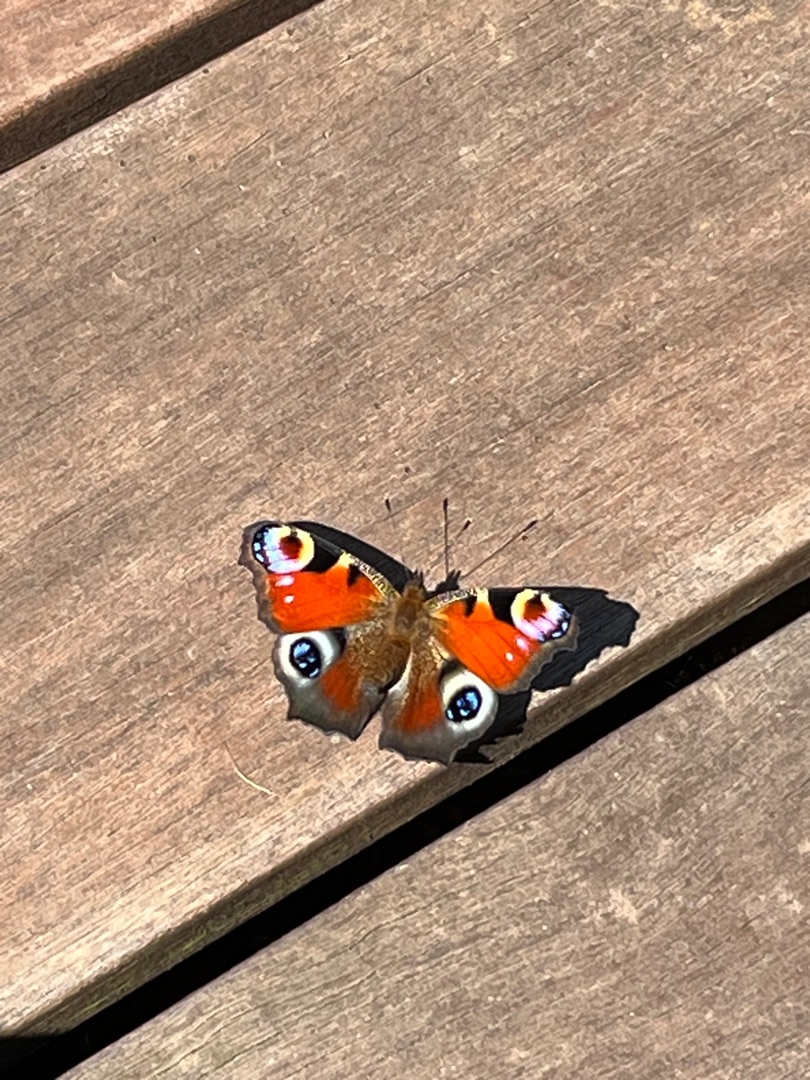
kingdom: Animalia
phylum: Arthropoda
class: Insecta
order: Lepidoptera
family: Nymphalidae
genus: Aglais
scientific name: Aglais io
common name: Dagpåfugleøje
